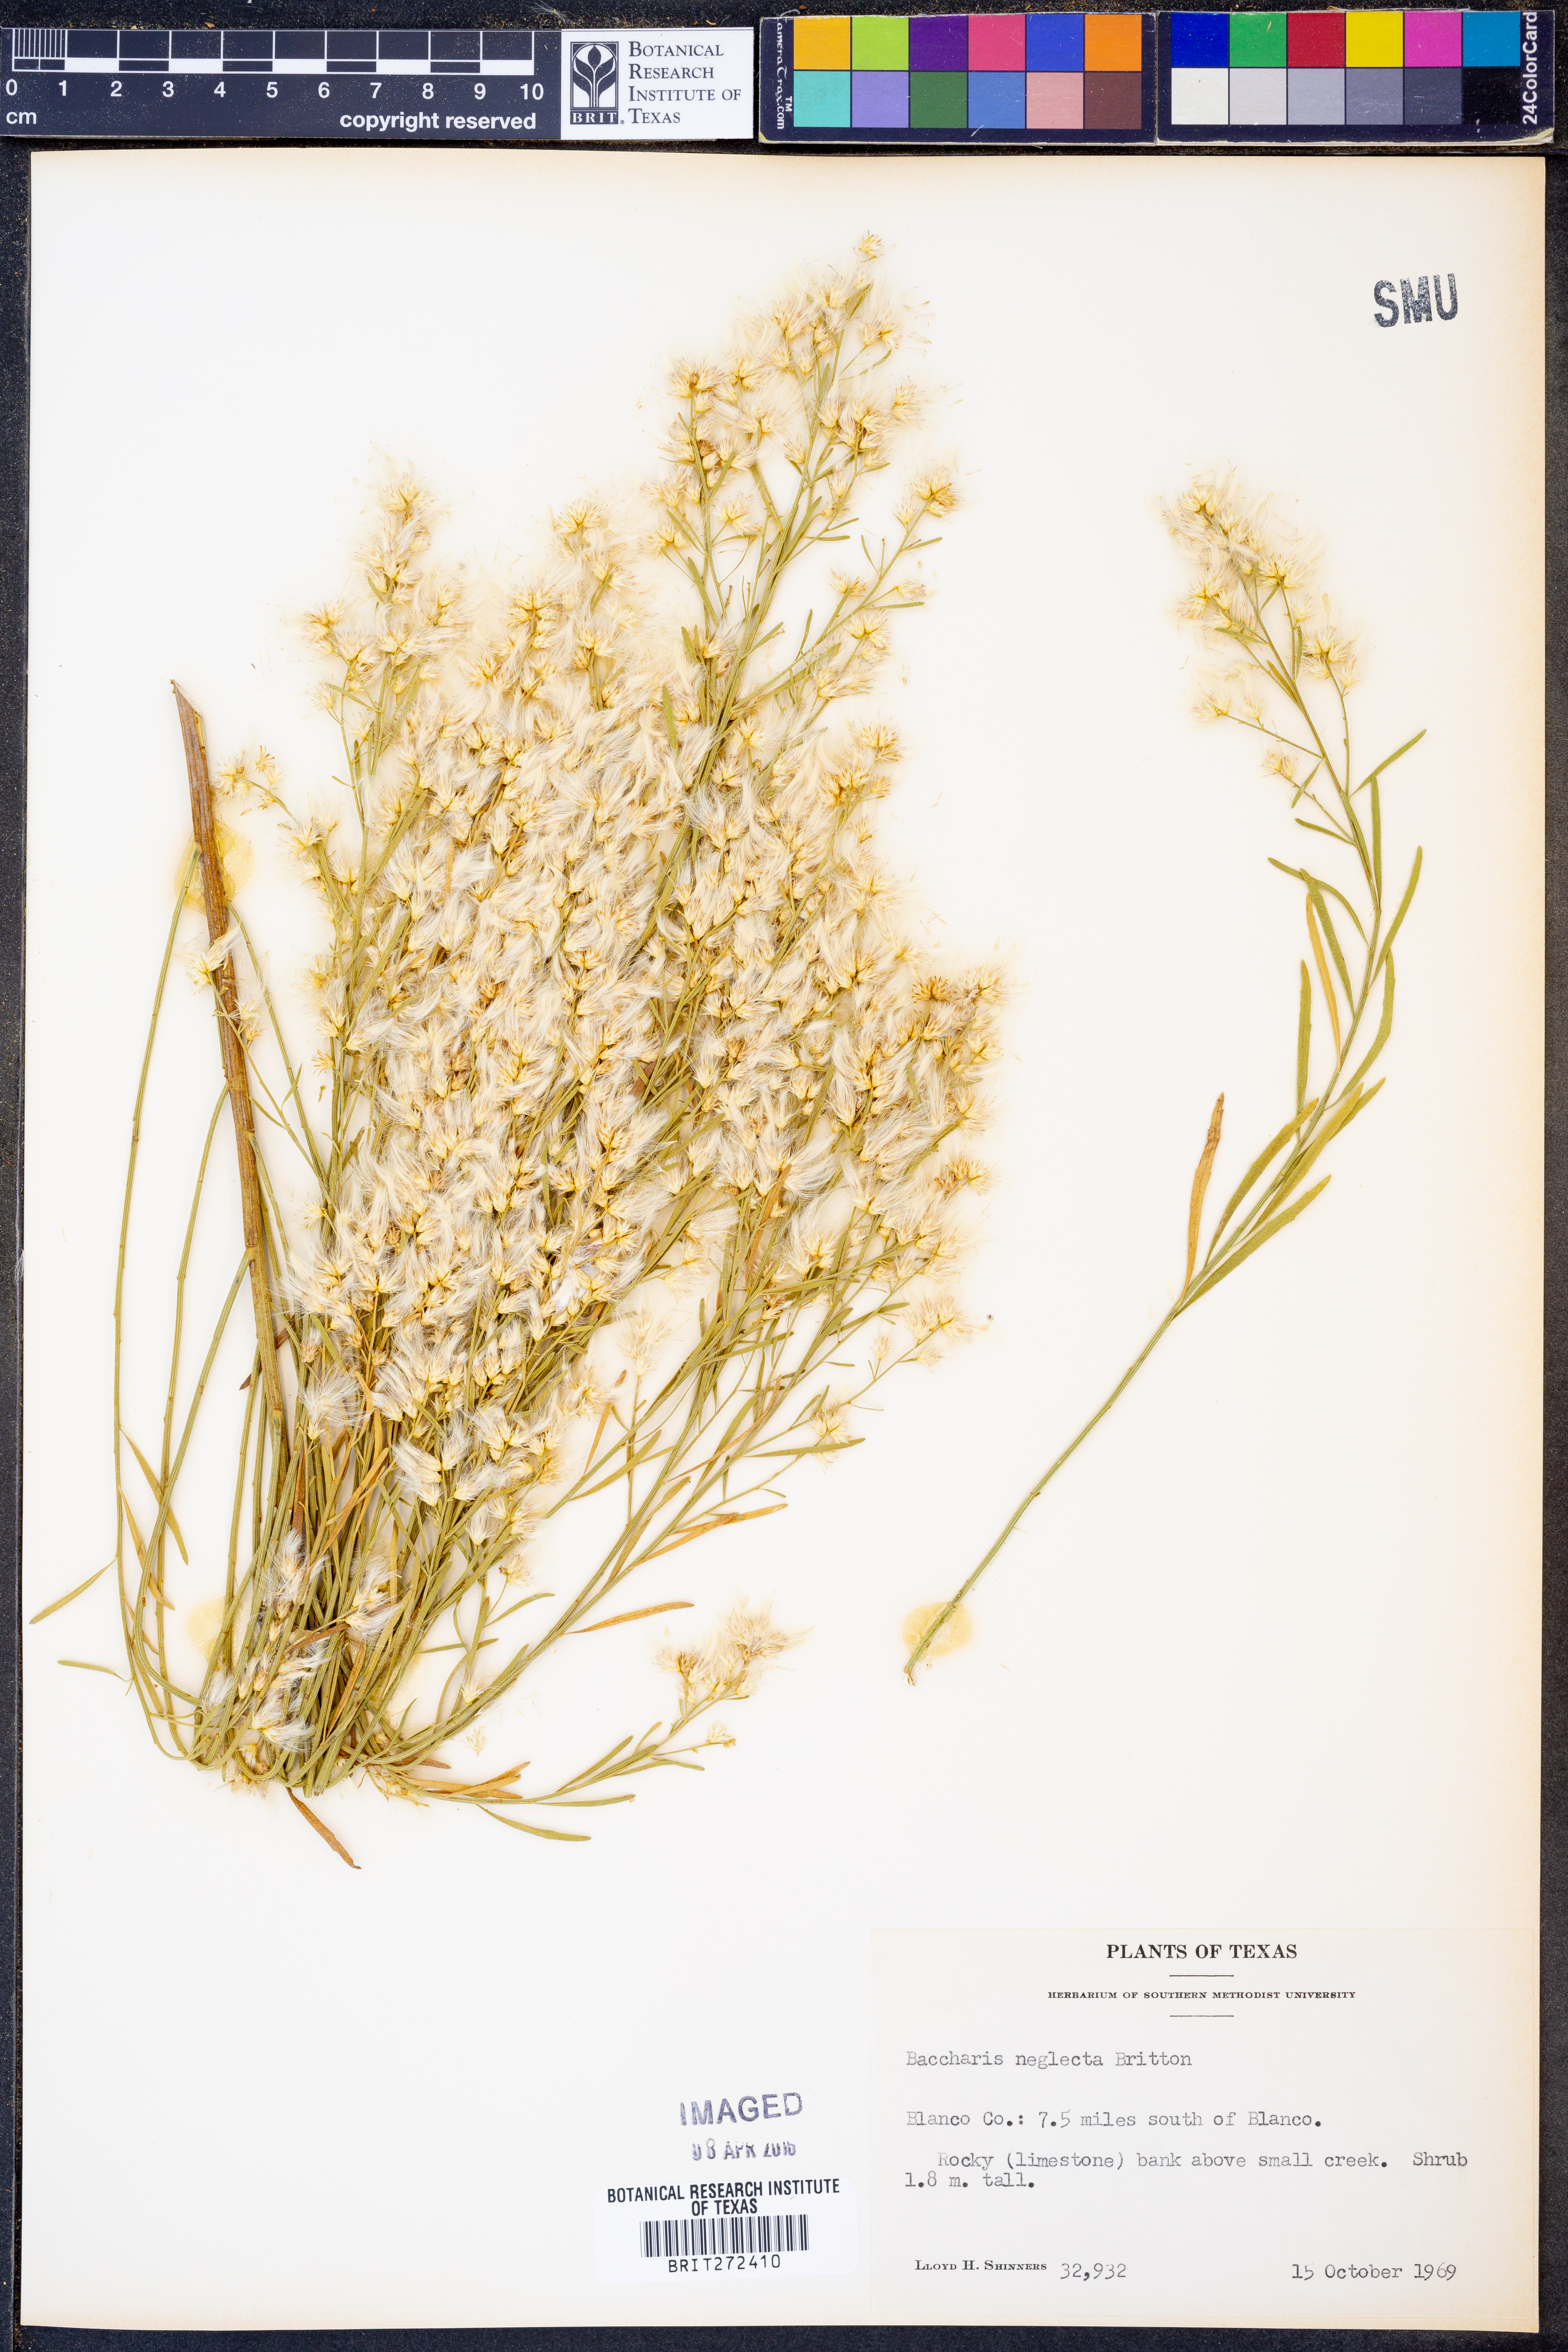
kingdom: Plantae
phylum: Tracheophyta
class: Magnoliopsida
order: Asterales
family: Asteraceae
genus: Baccharis
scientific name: Baccharis neglecta
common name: Roosevelt-weed
